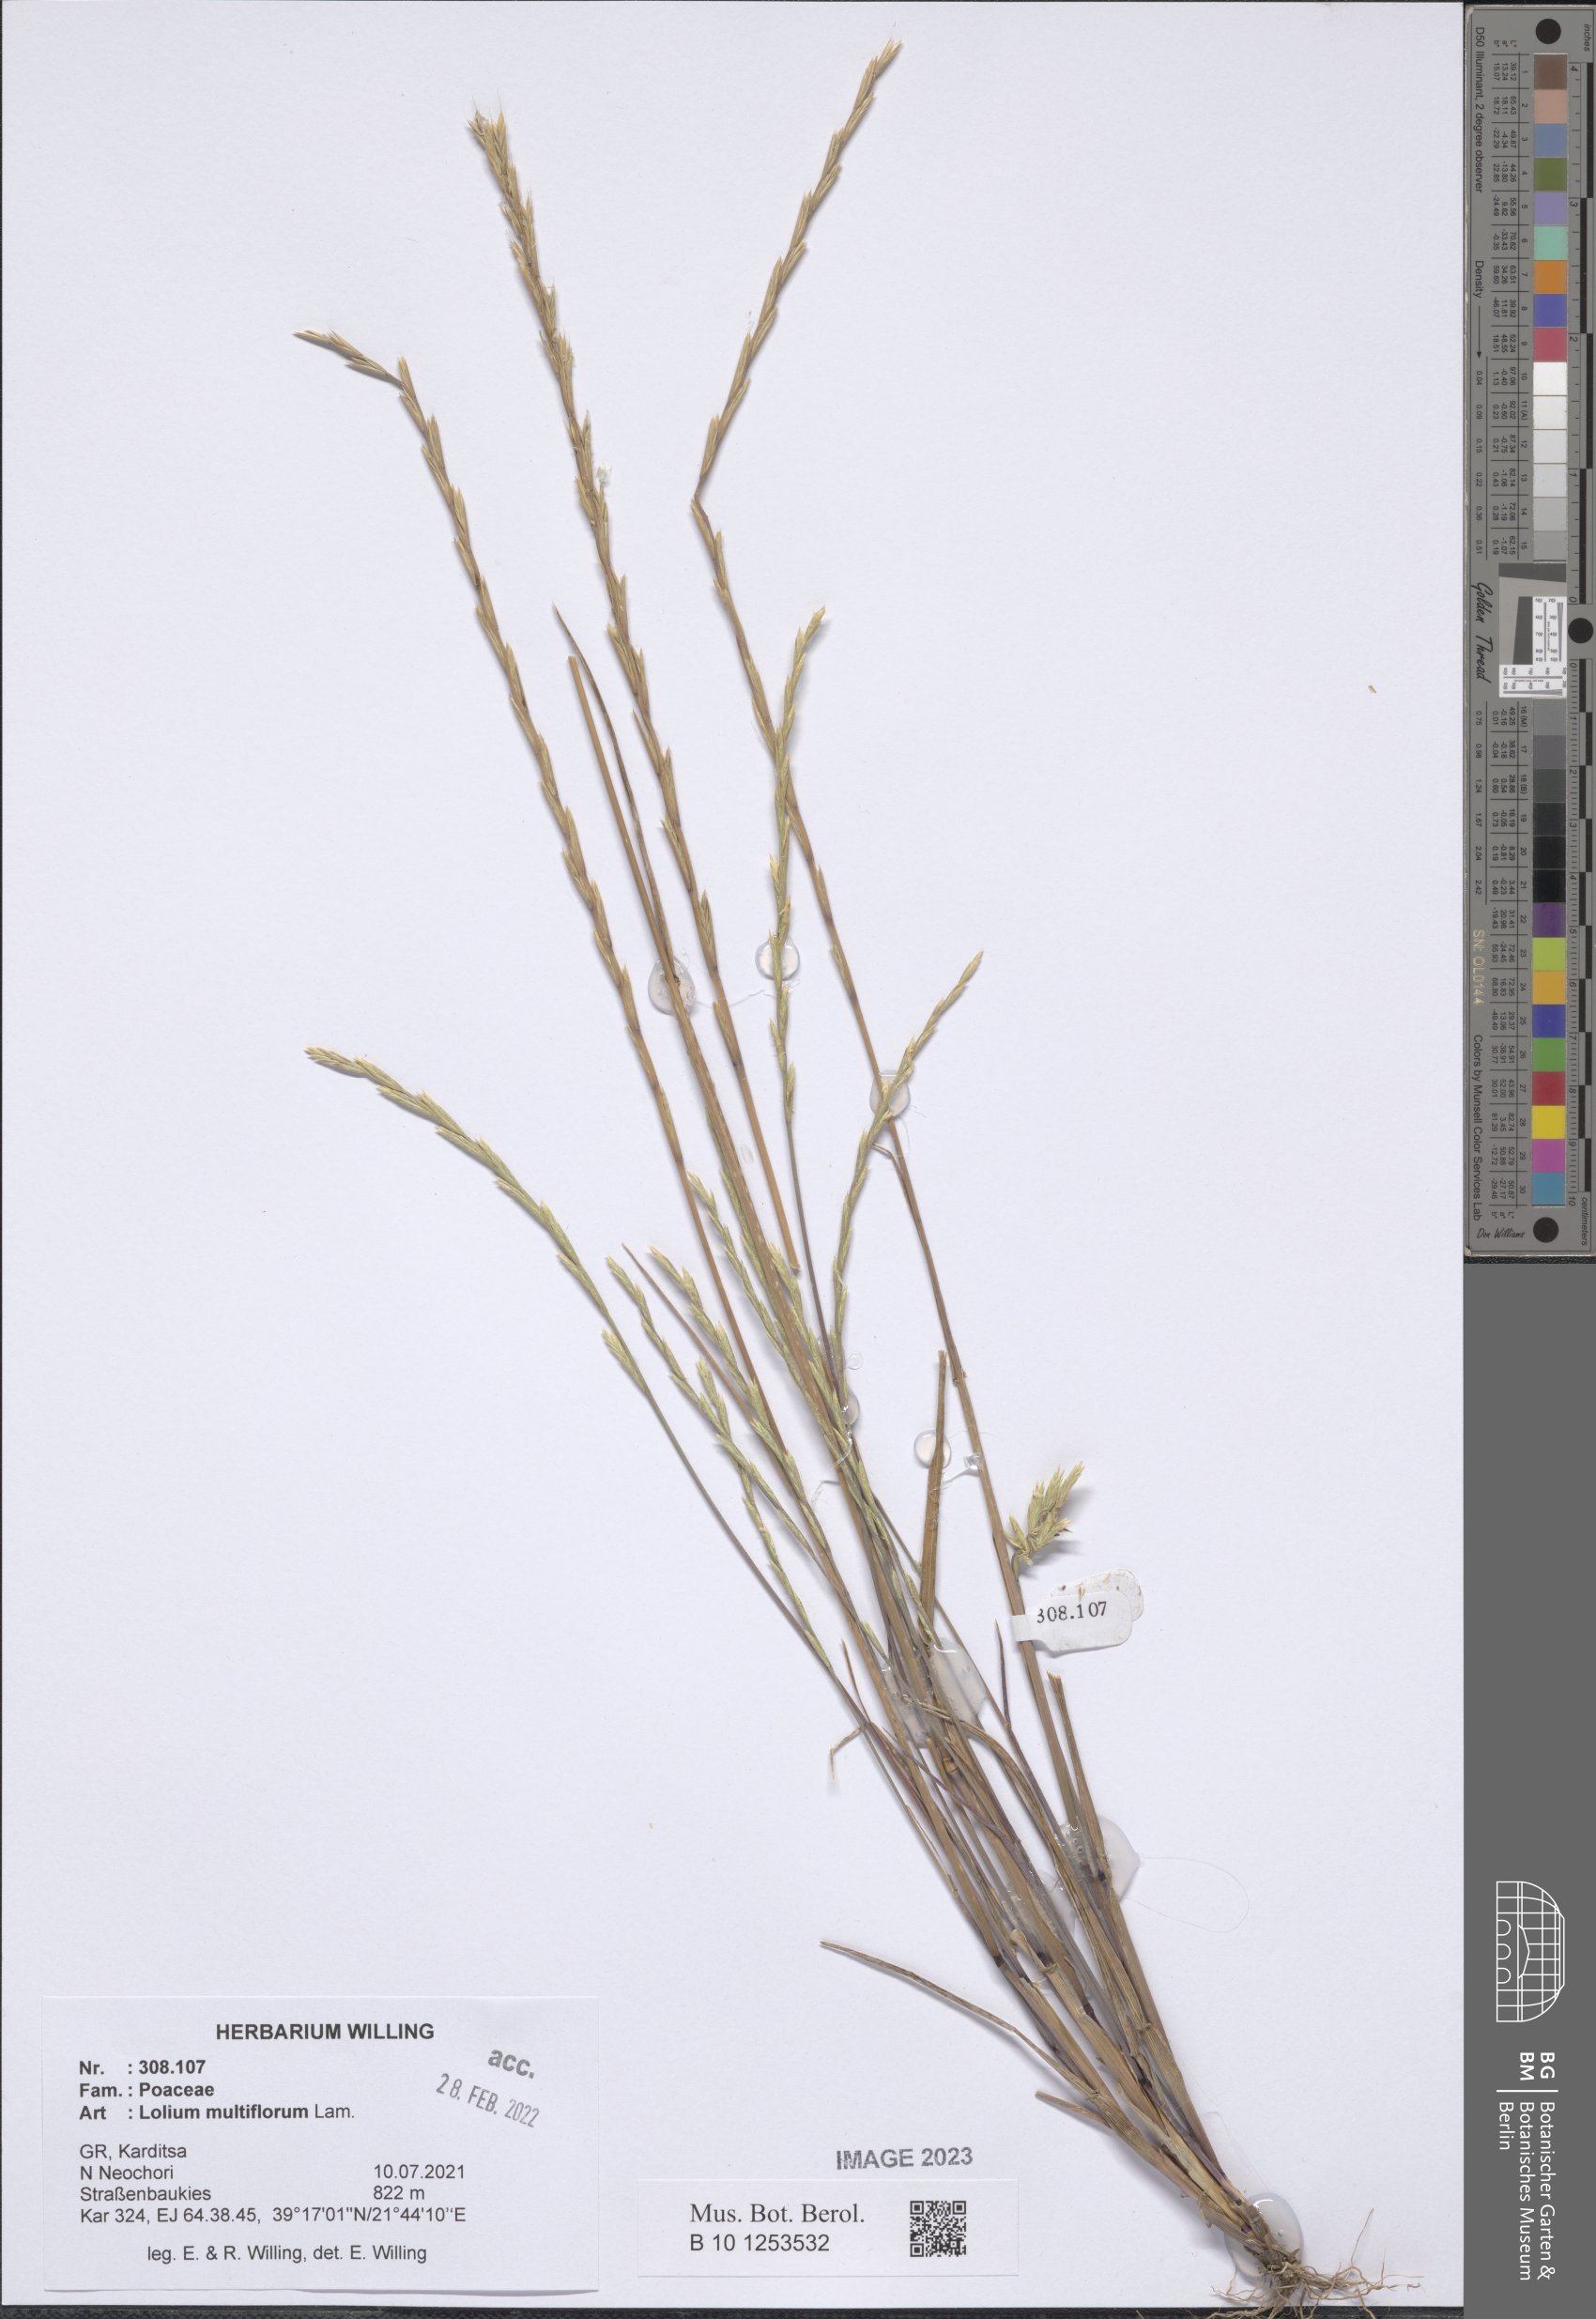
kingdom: Plantae
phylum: Tracheophyta
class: Liliopsida
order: Poales
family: Poaceae
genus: Lolium
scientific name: Lolium multiflorum
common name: Annual ryegrass
